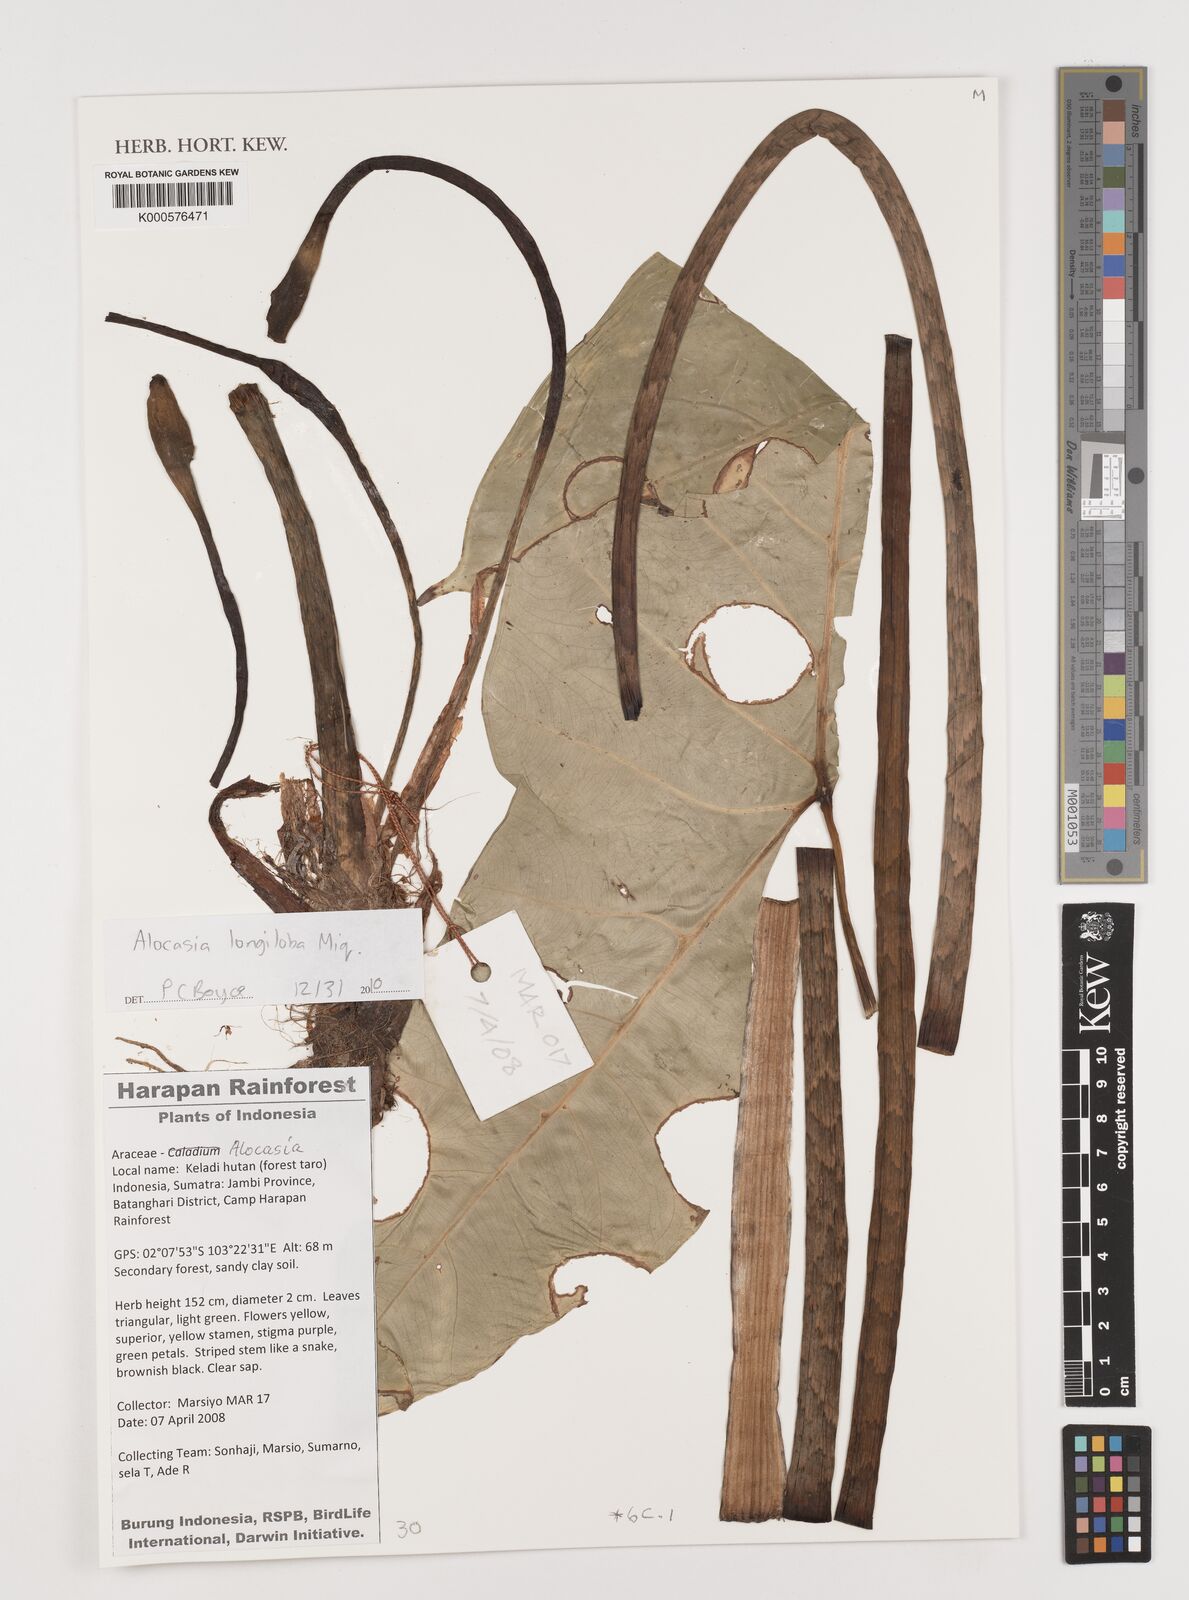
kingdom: Plantae
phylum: Tracheophyta
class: Liliopsida
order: Alismatales
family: Araceae
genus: Alocasia
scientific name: Alocasia longiloba
